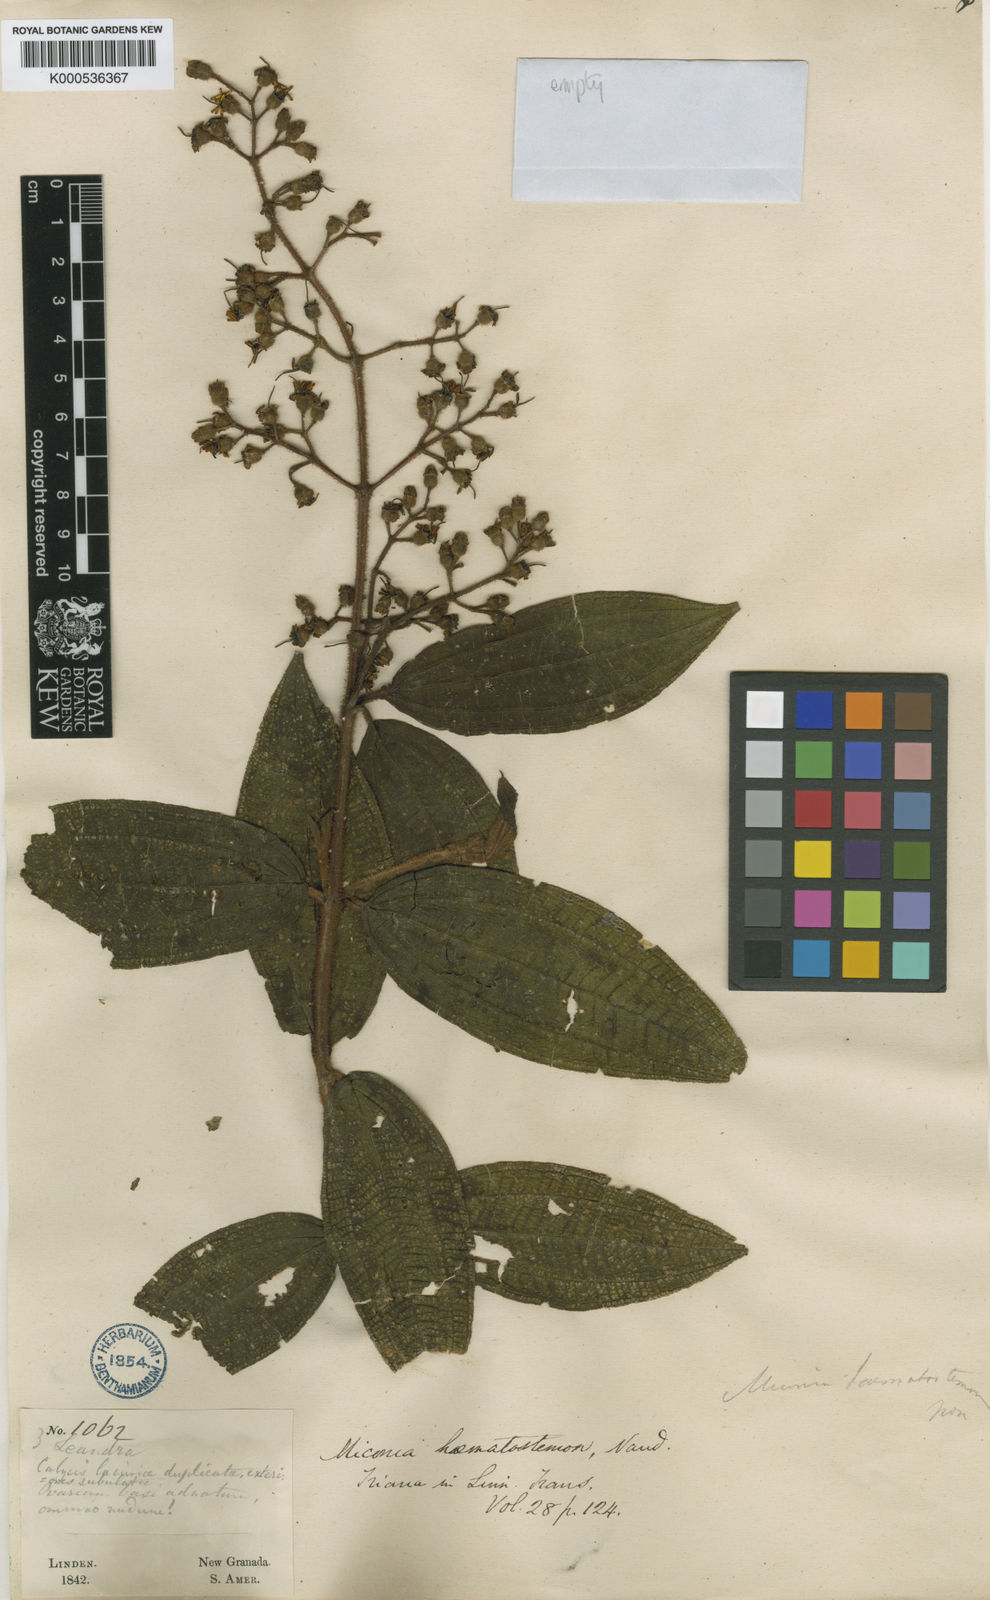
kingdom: Plantae
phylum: Tracheophyta
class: Magnoliopsida
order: Myrtales
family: Melastomataceae
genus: Miconia
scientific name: Miconia hematostemon
